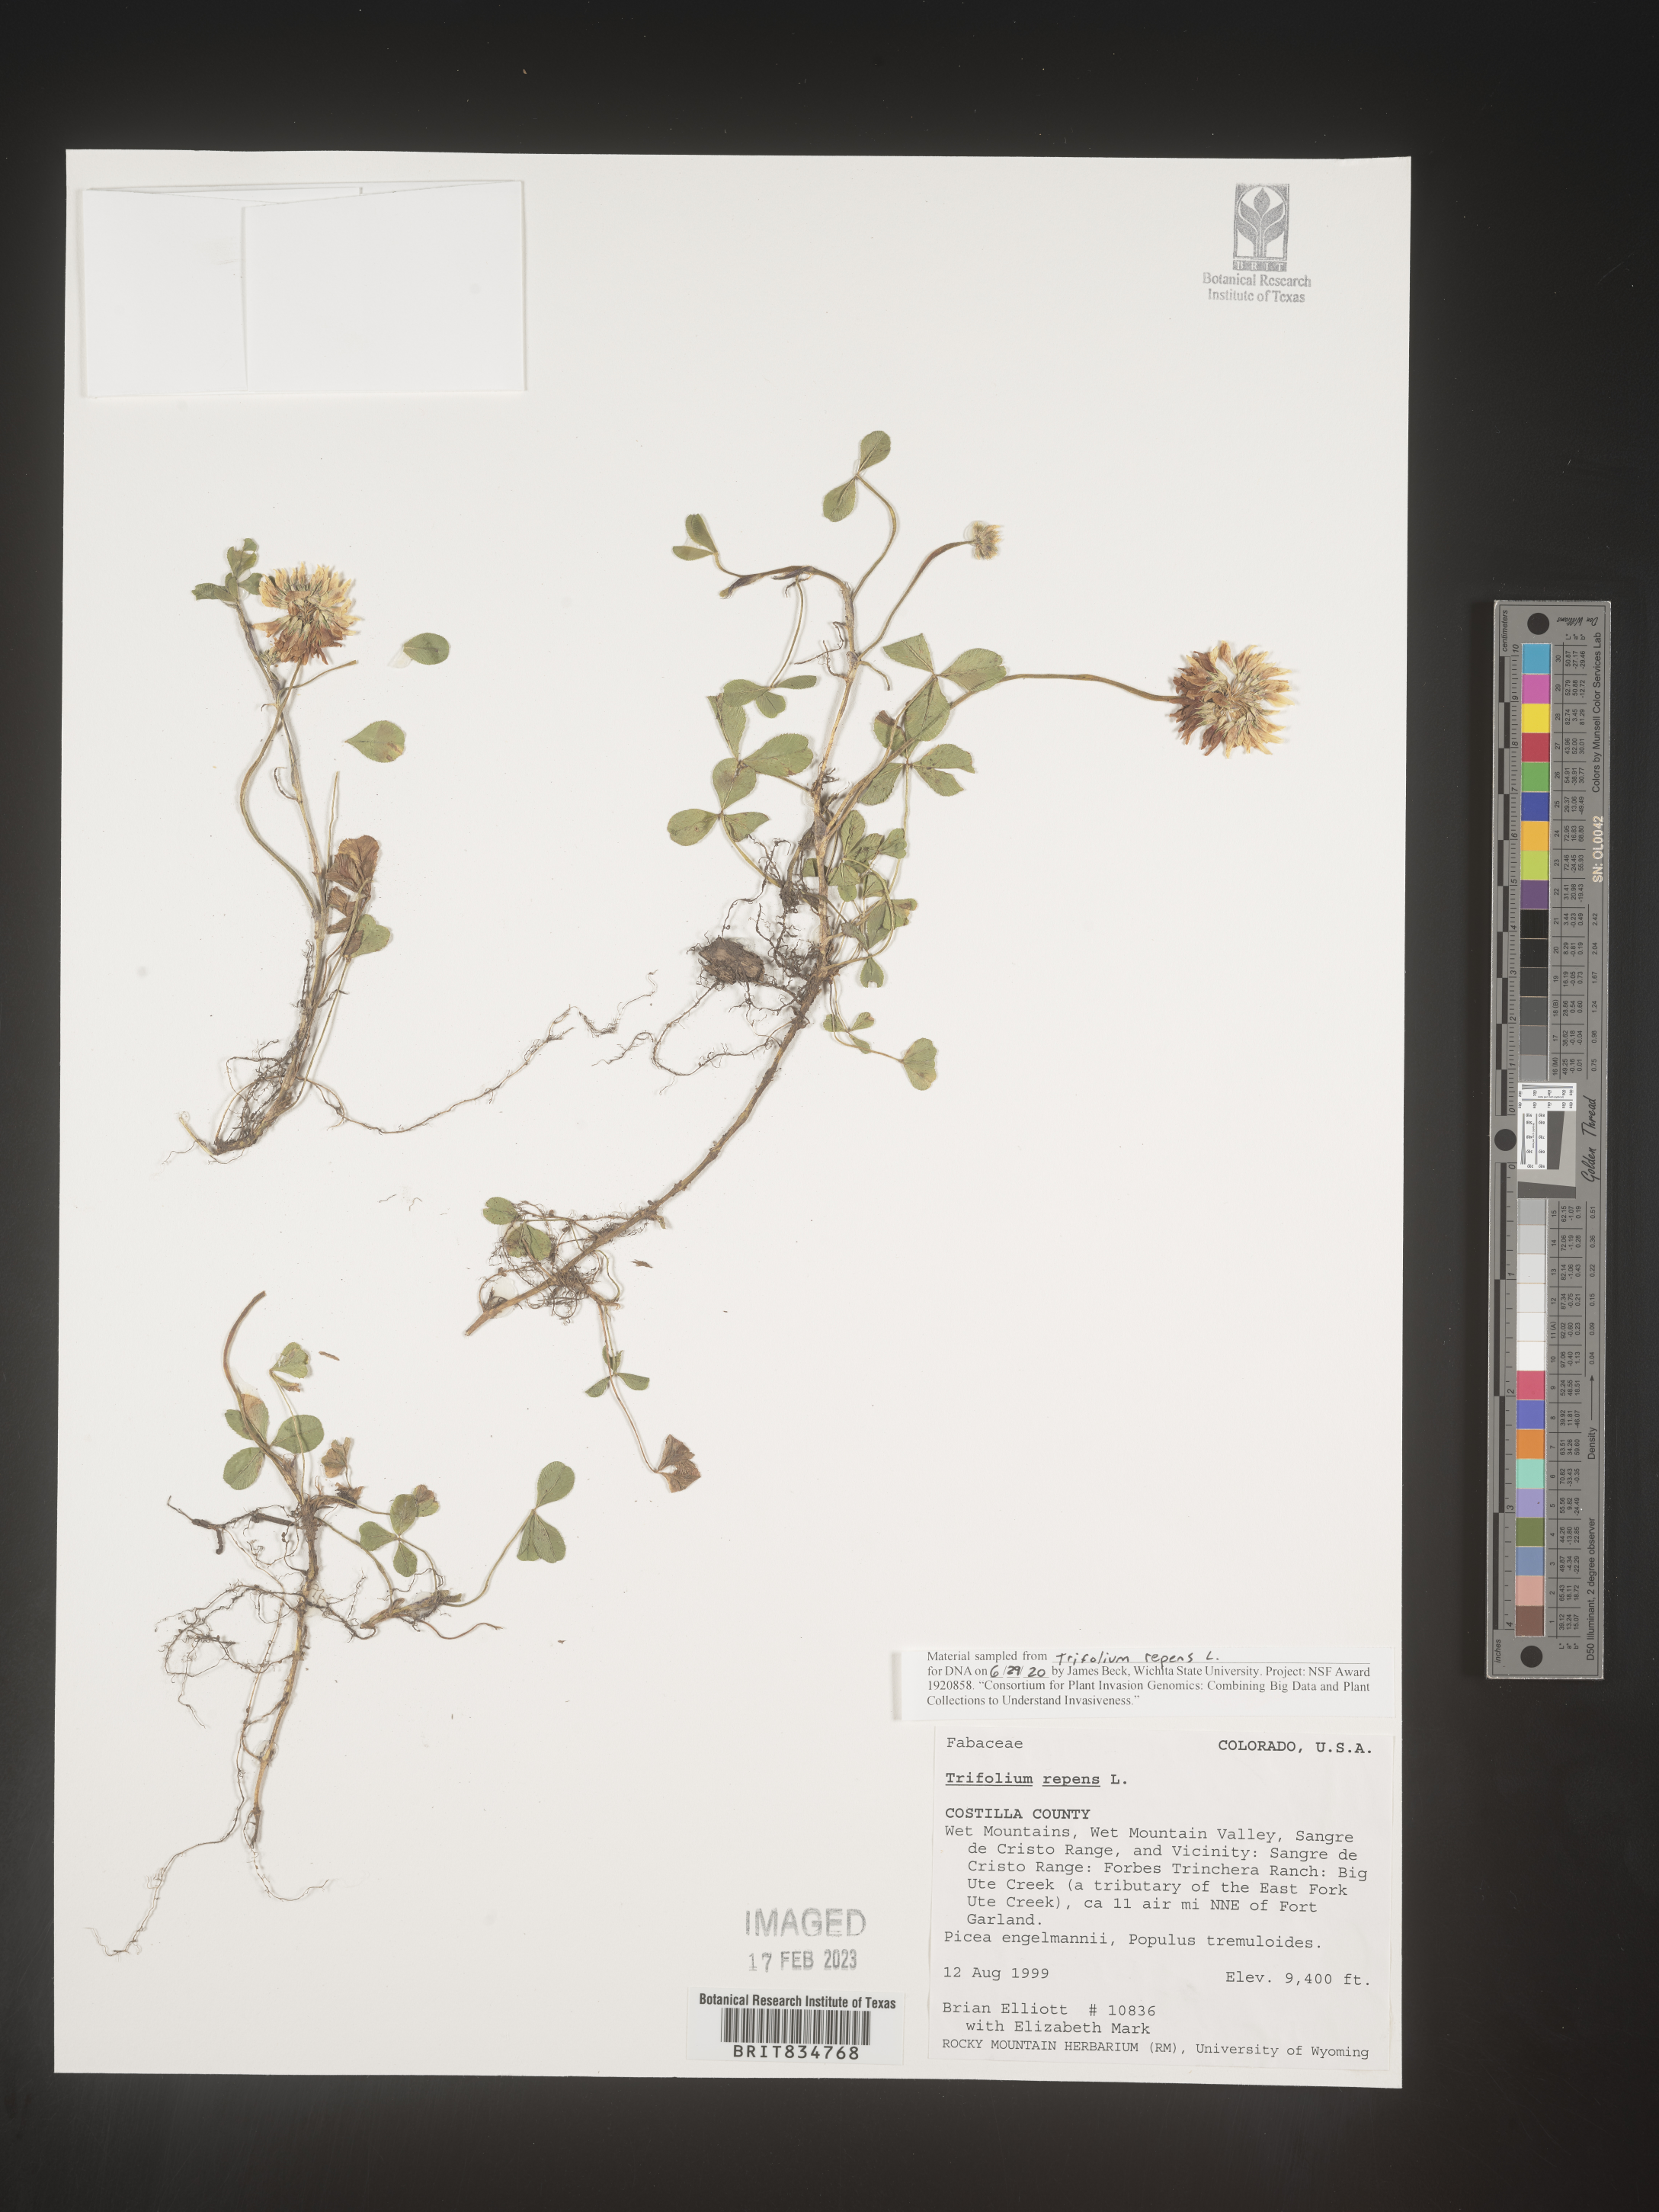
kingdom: Plantae
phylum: Tracheophyta
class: Magnoliopsida
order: Fabales
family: Fabaceae
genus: Trifolium
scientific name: Trifolium repens
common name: White clover
